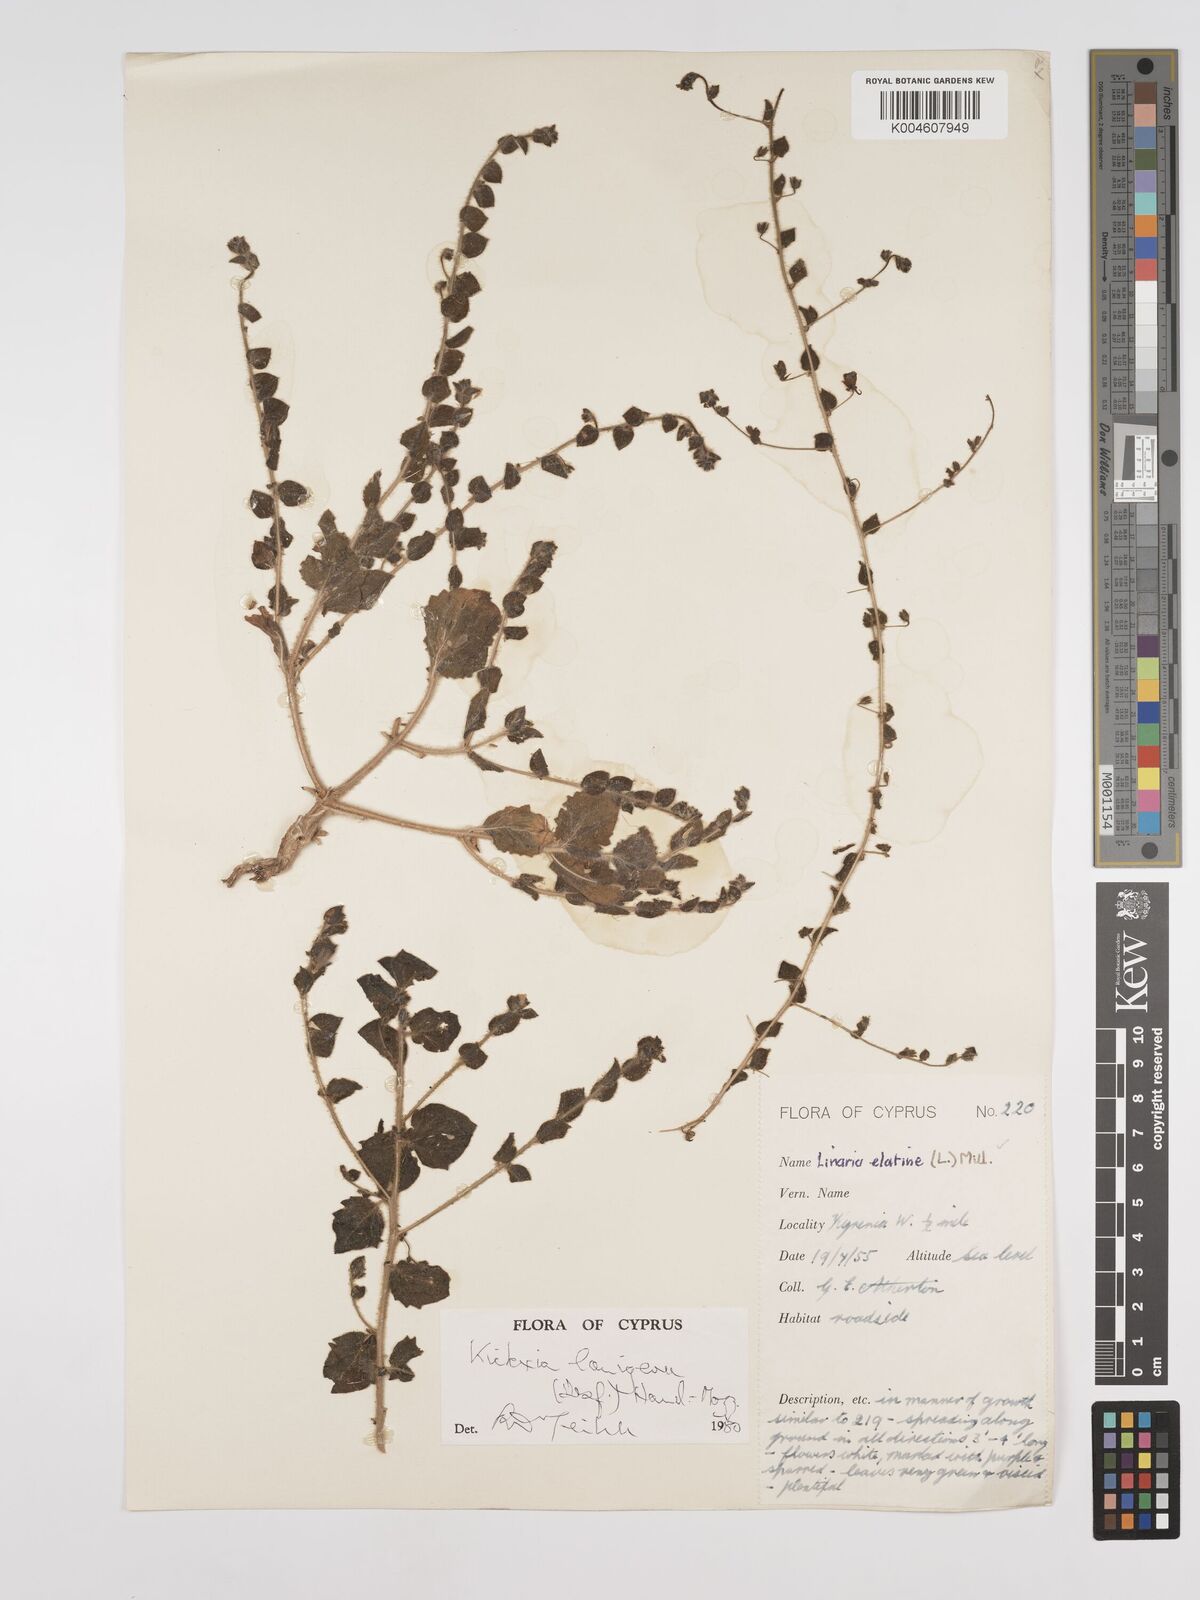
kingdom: Plantae
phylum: Tracheophyta
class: Magnoliopsida
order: Lamiales
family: Plantaginaceae
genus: Kickxia
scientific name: Kickxia lanigera
